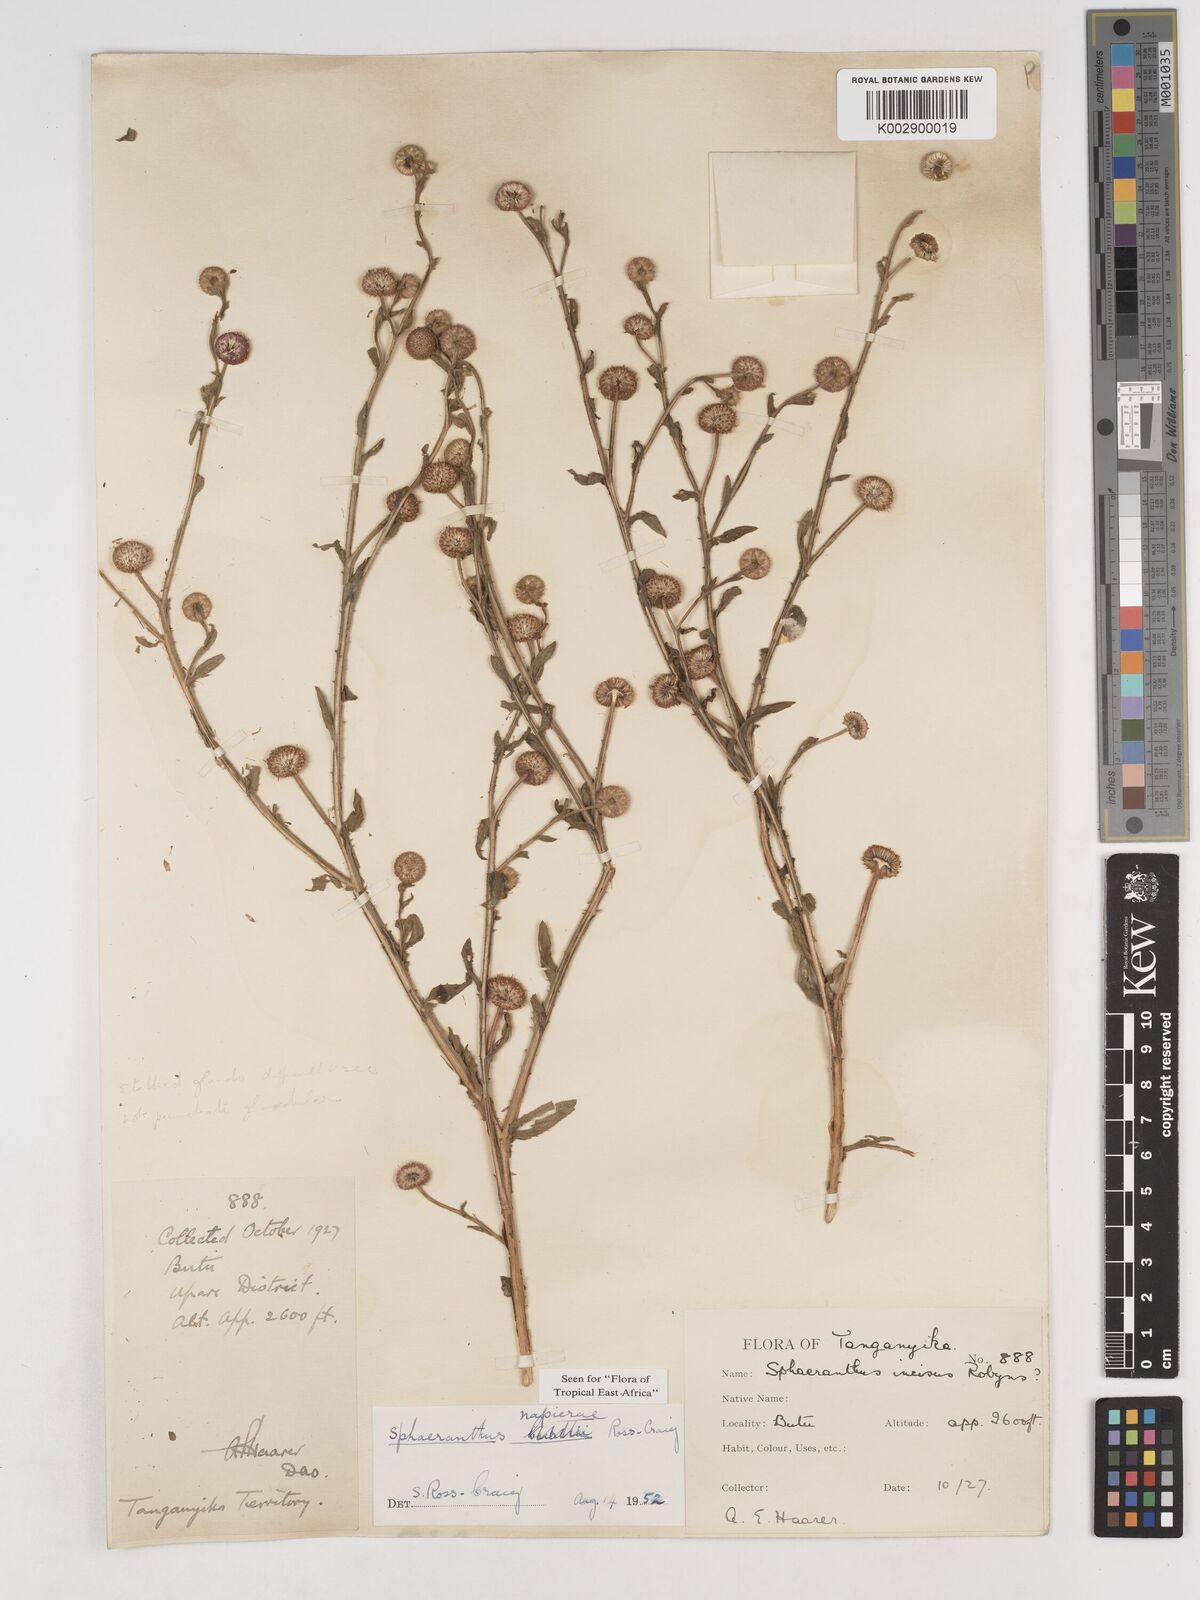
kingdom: Plantae
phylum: Tracheophyta
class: Magnoliopsida
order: Asterales
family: Asteraceae
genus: Sphaeranthus
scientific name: Sphaeranthus suaveolens
